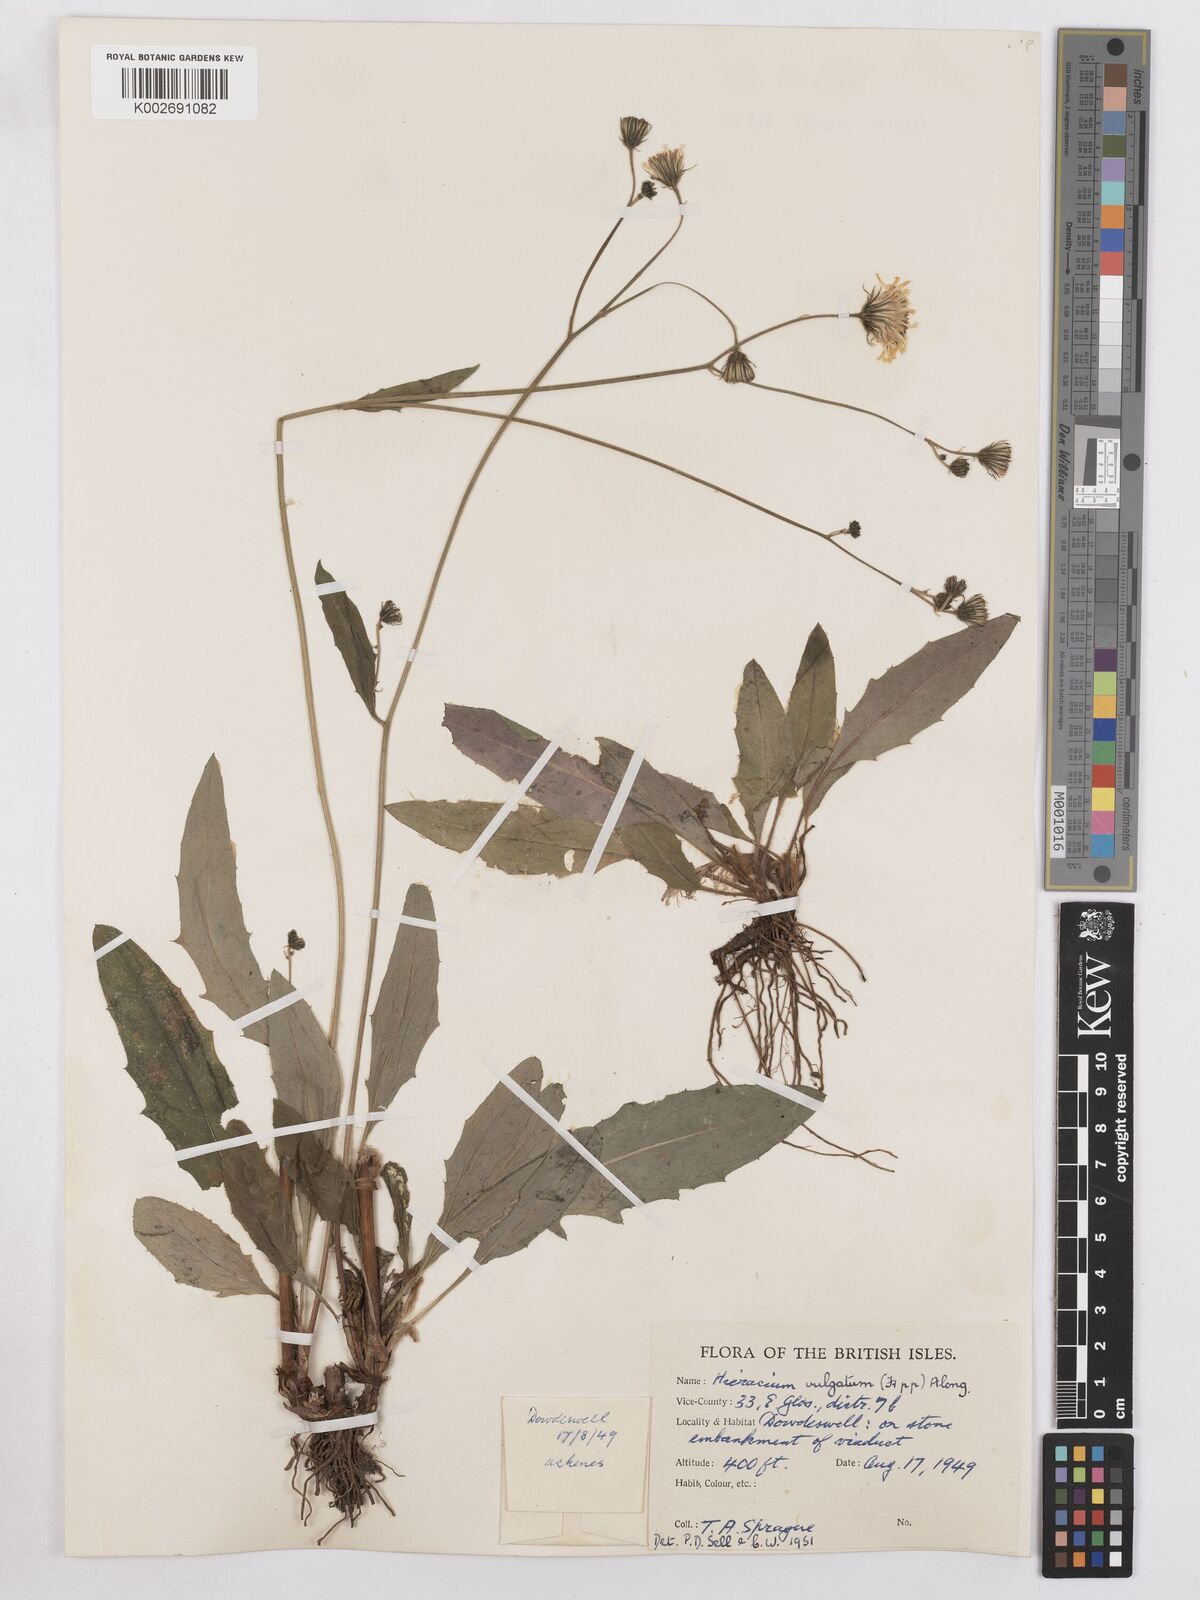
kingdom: Plantae
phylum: Tracheophyta
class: Magnoliopsida
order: Asterales
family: Asteraceae
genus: Hieracium
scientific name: Hieracium lachenalii
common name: Common hawkweed
